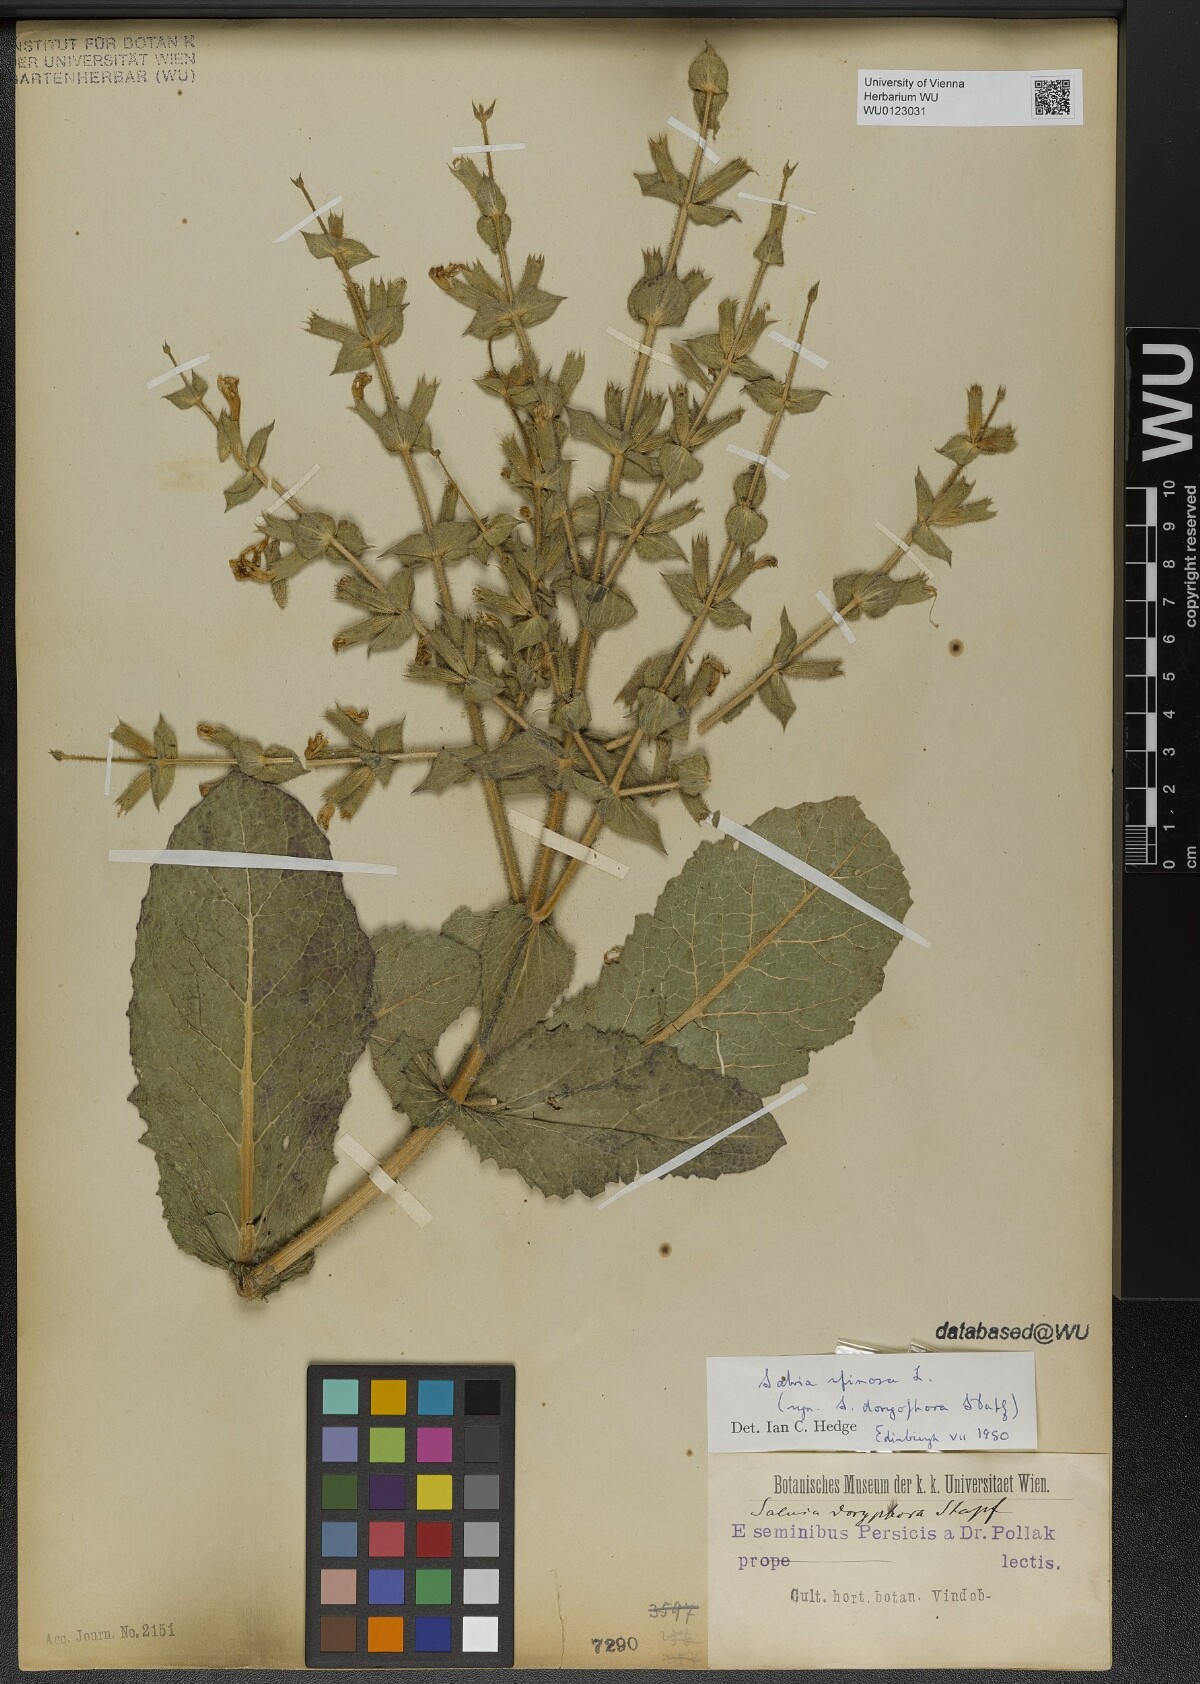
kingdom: Plantae
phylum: Tracheophyta
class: Magnoliopsida
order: Lamiales
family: Lamiaceae
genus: Salvia
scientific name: Salvia spinosa
